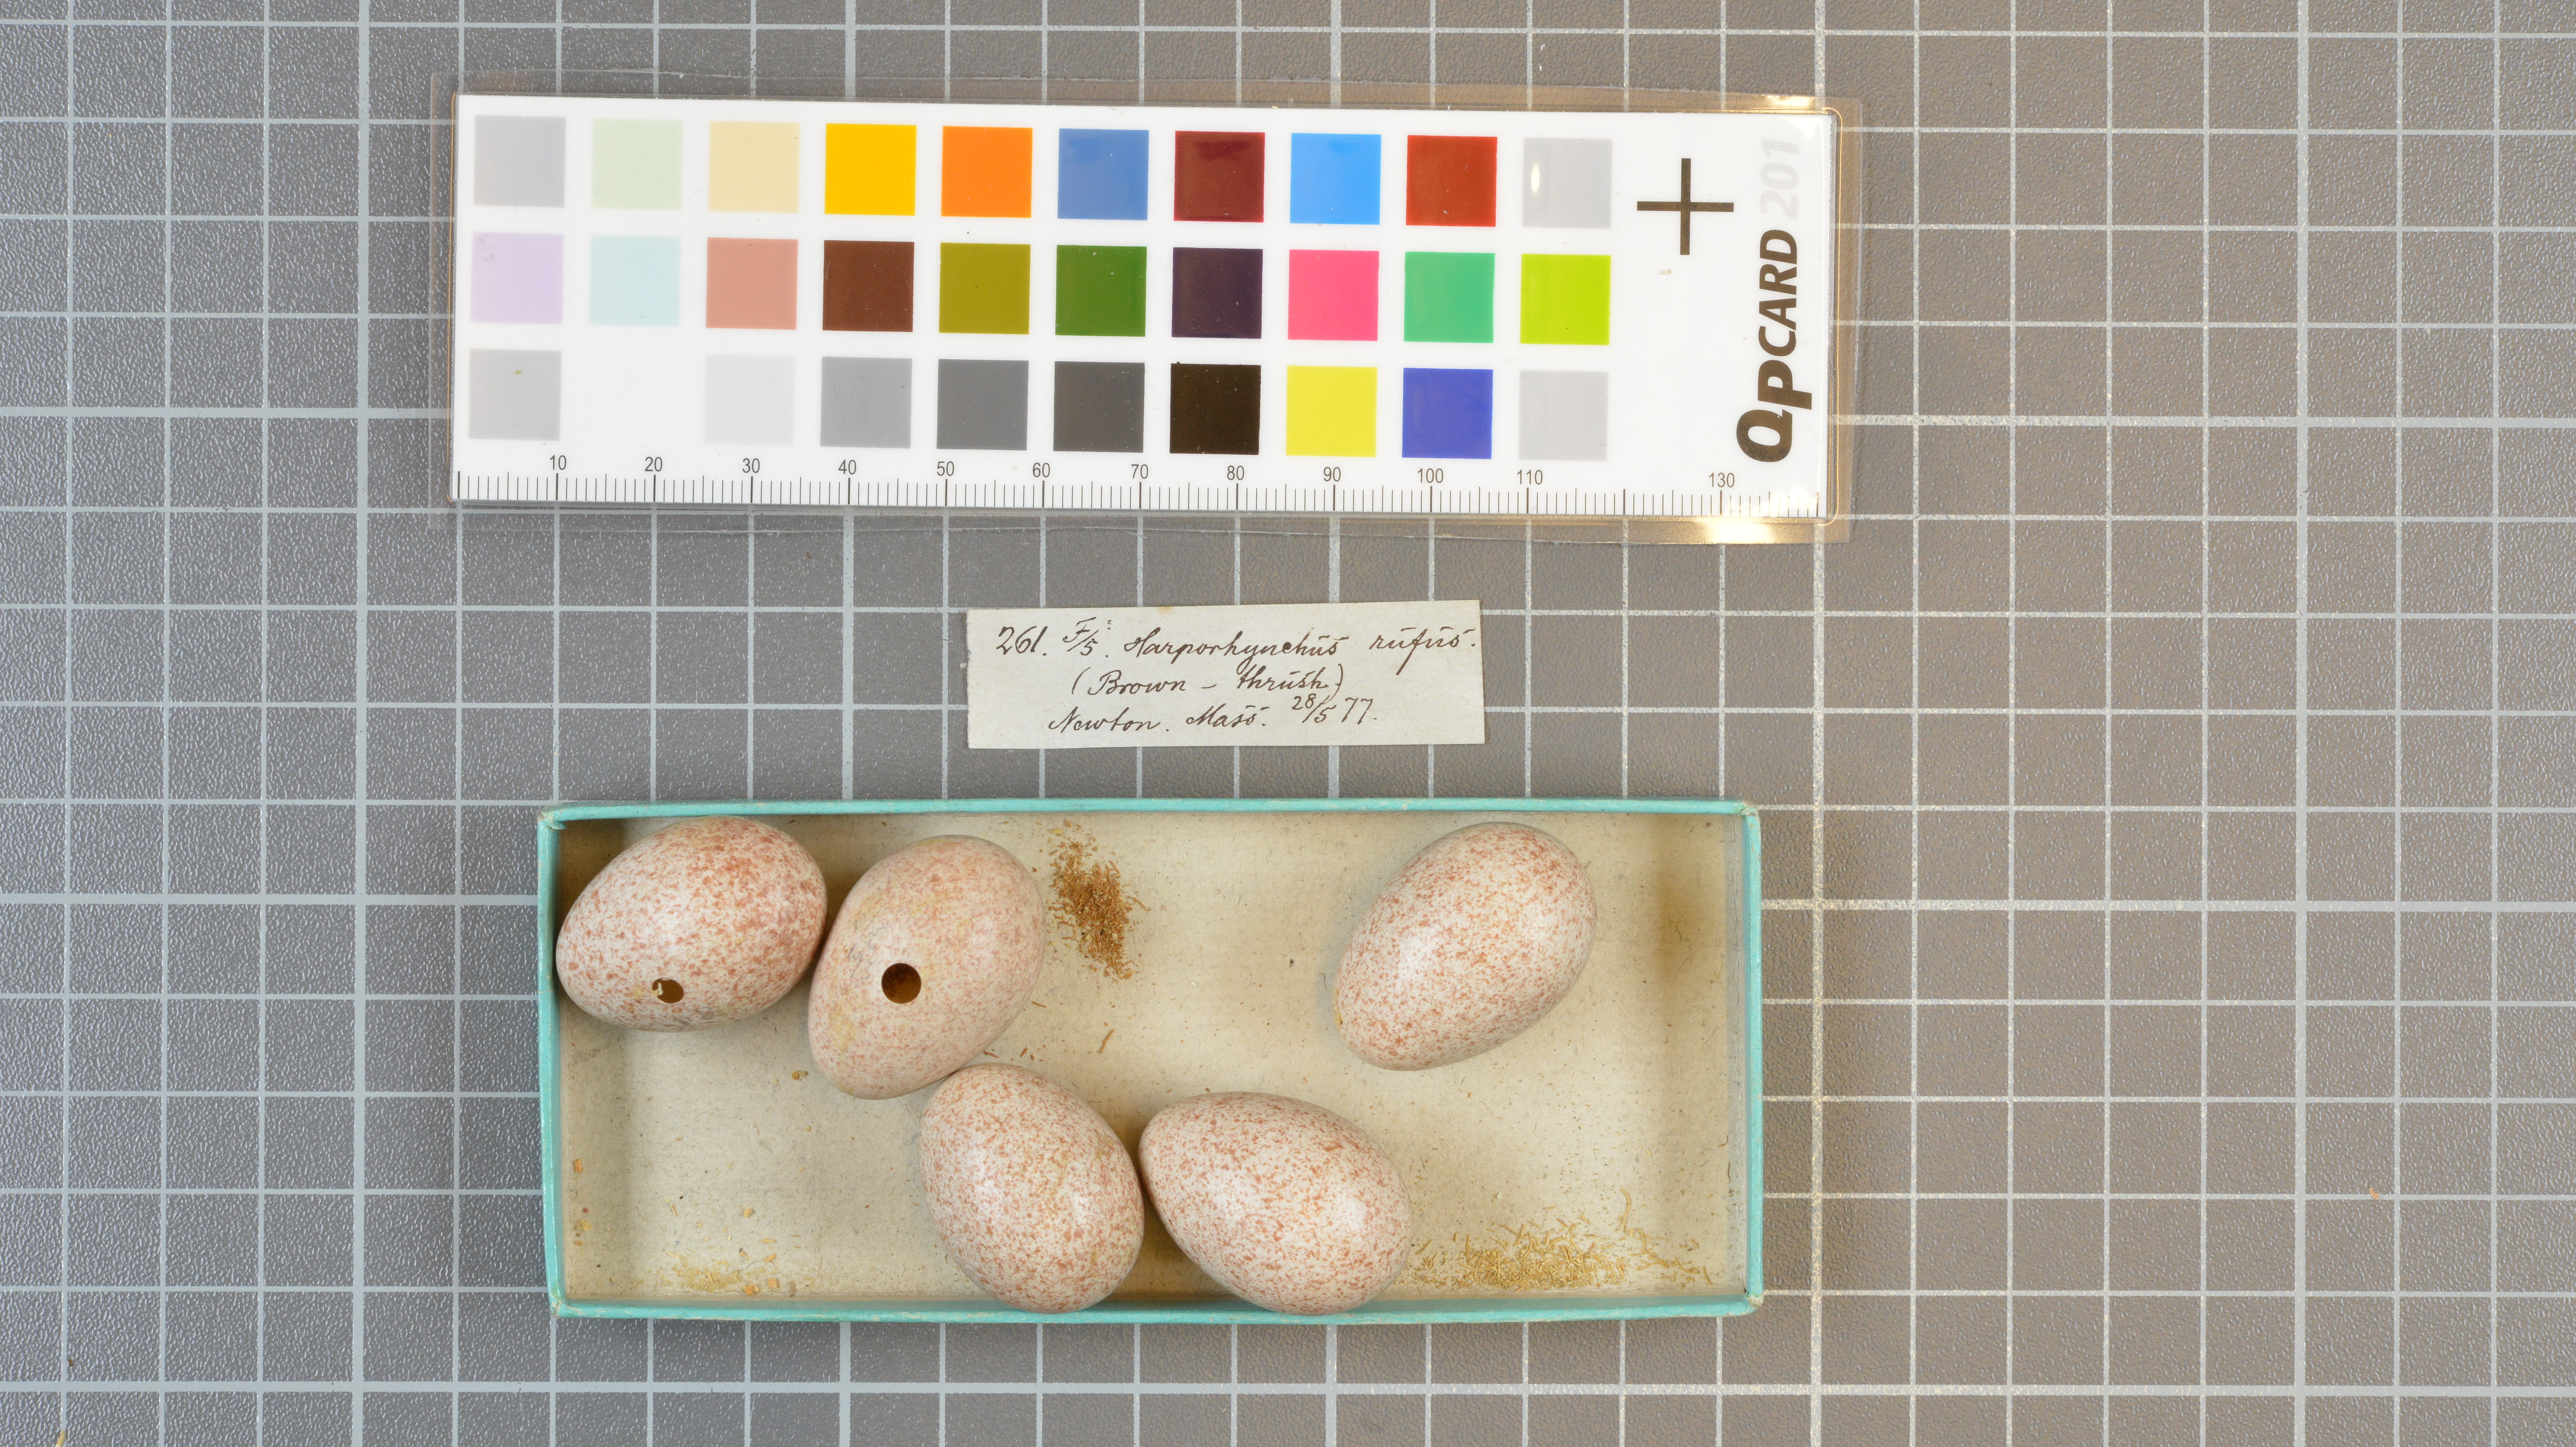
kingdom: Animalia
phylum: Chordata
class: Aves
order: Passeriformes
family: Mimidae
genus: Toxostoma
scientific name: Toxostoma rufum
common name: Brown thrasher
